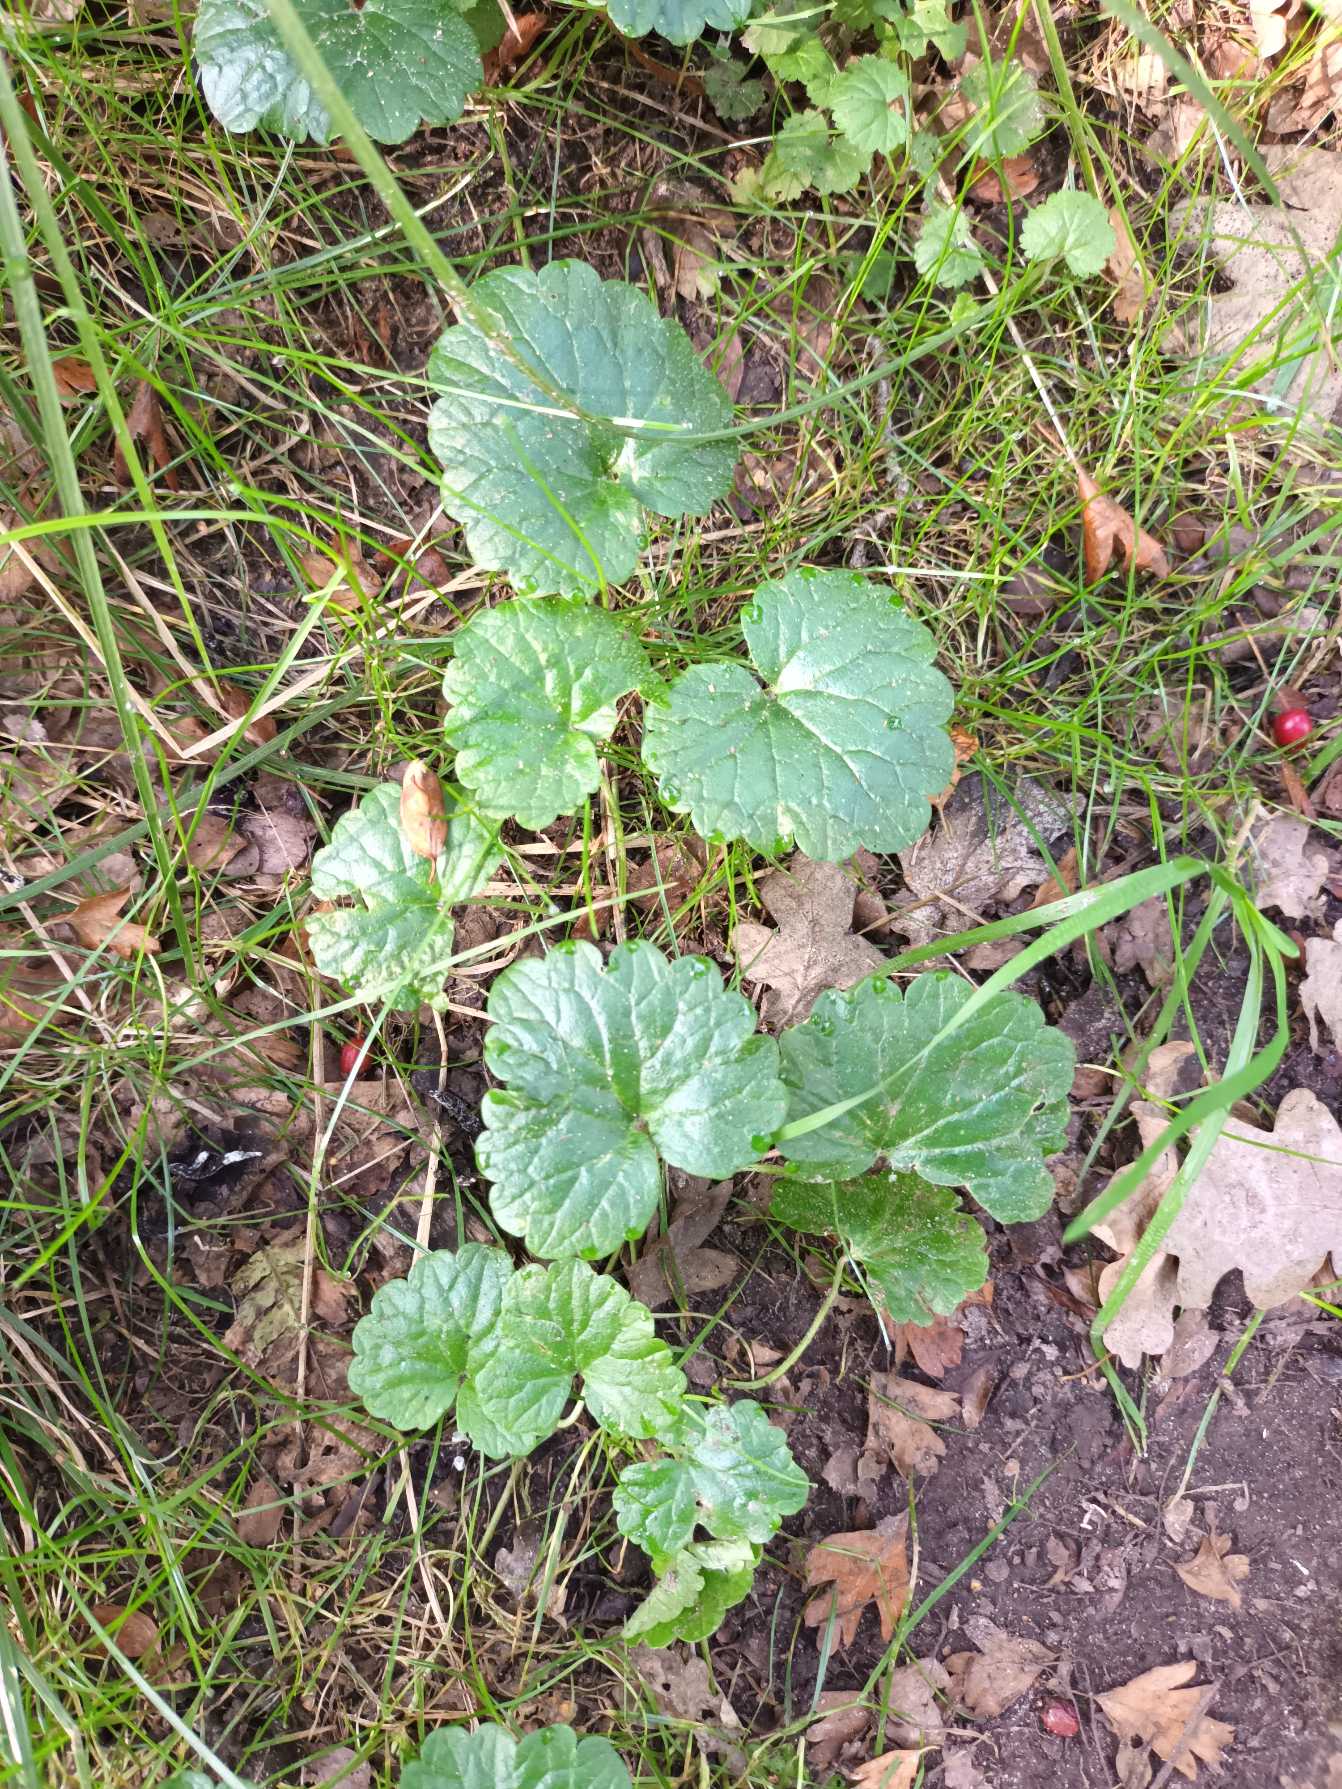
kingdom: Plantae
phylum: Tracheophyta
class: Magnoliopsida
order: Lamiales
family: Lamiaceae
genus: Glechoma
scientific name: Glechoma hederacea
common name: Korsknap
